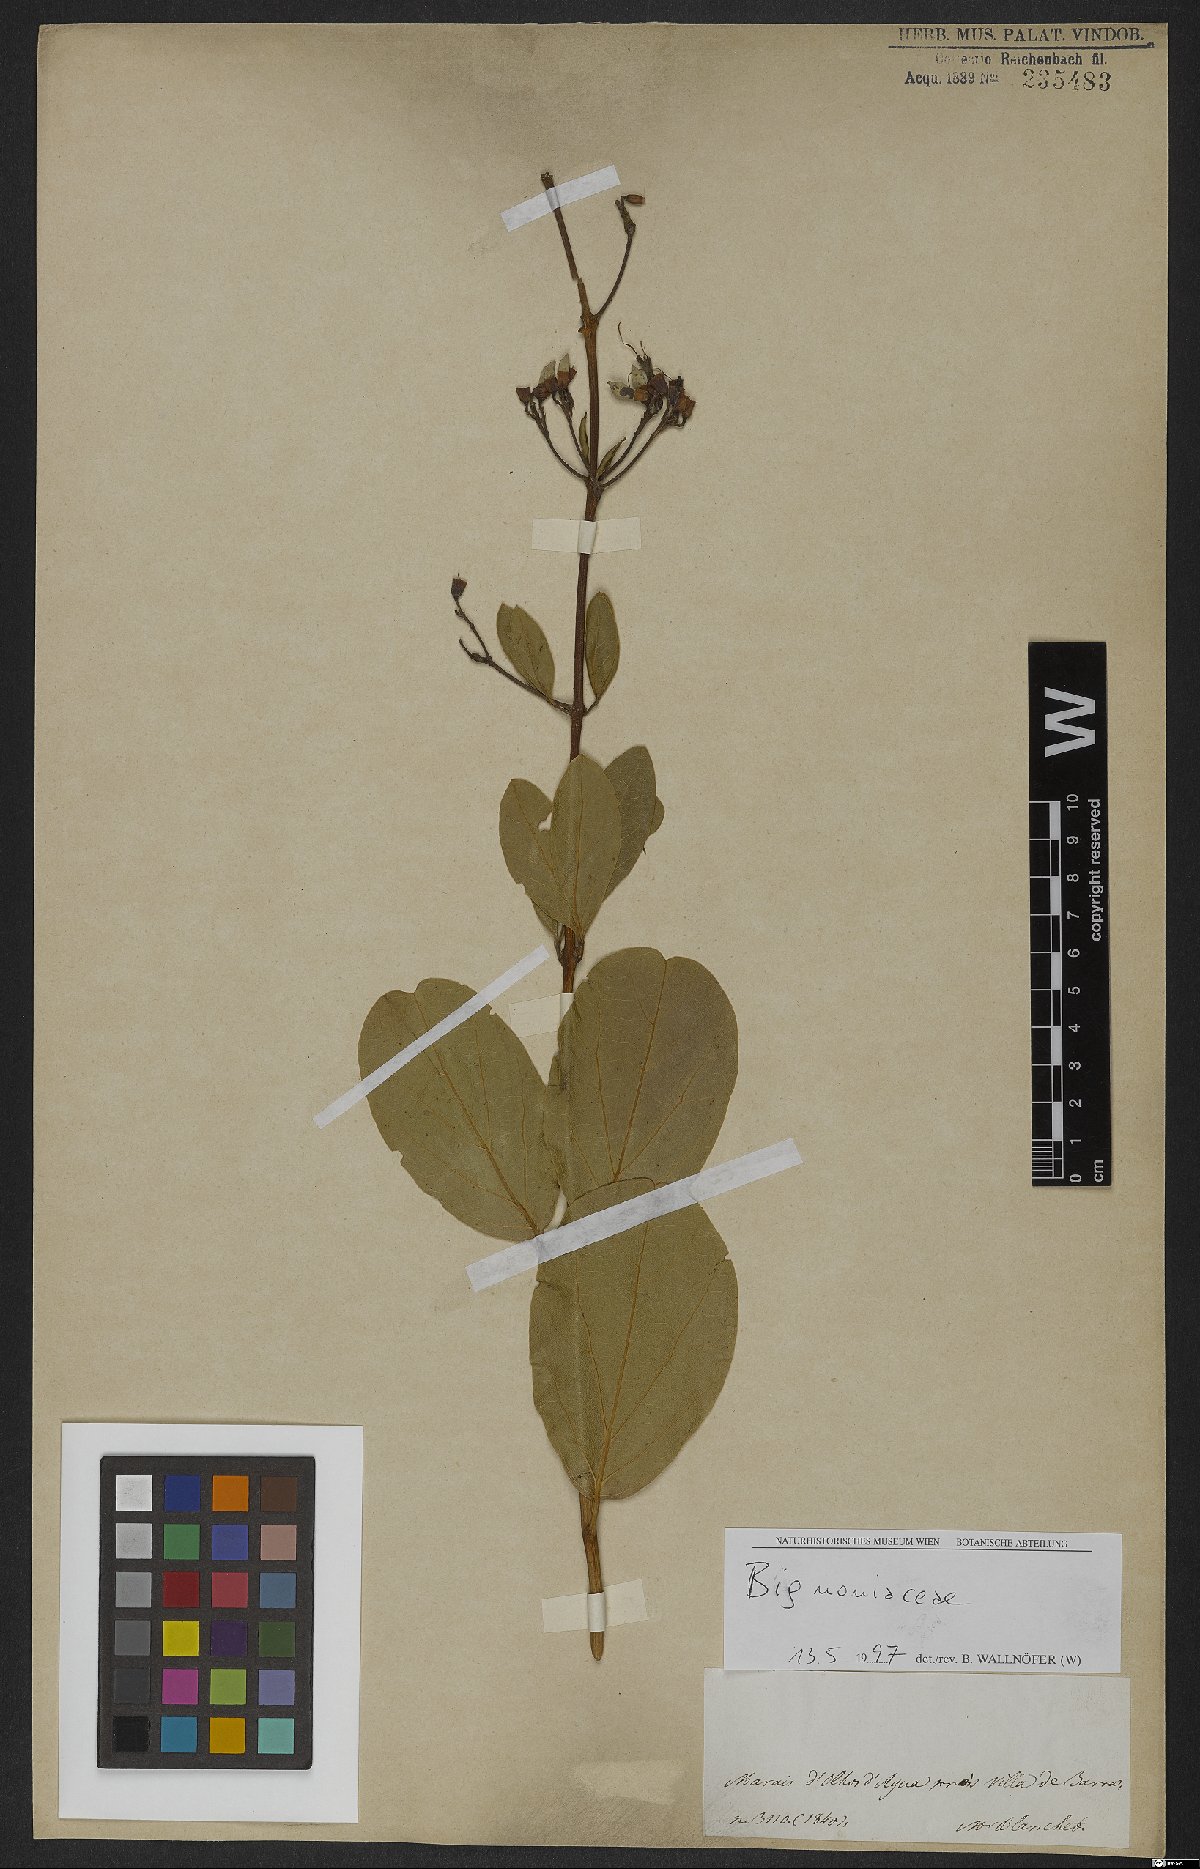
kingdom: Plantae
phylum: Tracheophyta
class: Magnoliopsida
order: Lamiales
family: Bignoniaceae
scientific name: Bignoniaceae
